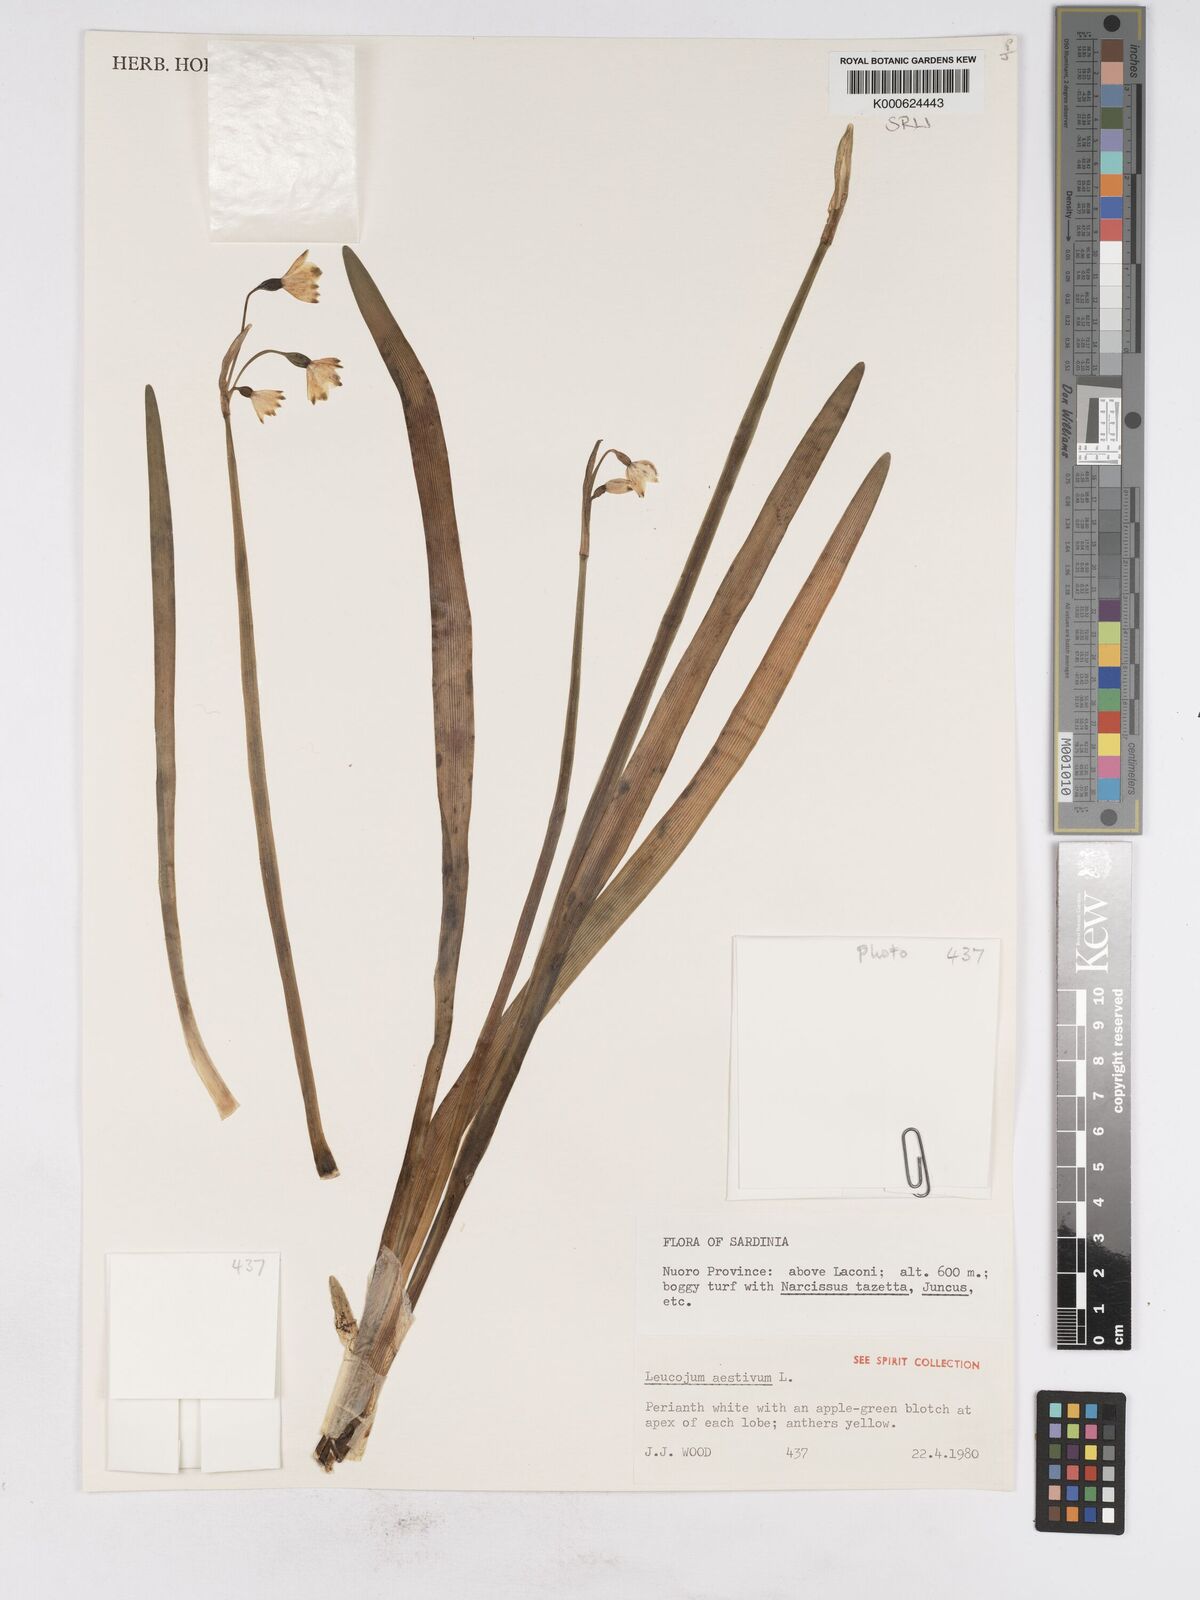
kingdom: Plantae
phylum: Tracheophyta
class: Liliopsida
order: Asparagales
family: Amaryllidaceae
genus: Leucojum
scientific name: Leucojum aestivum
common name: Summer snowflake
